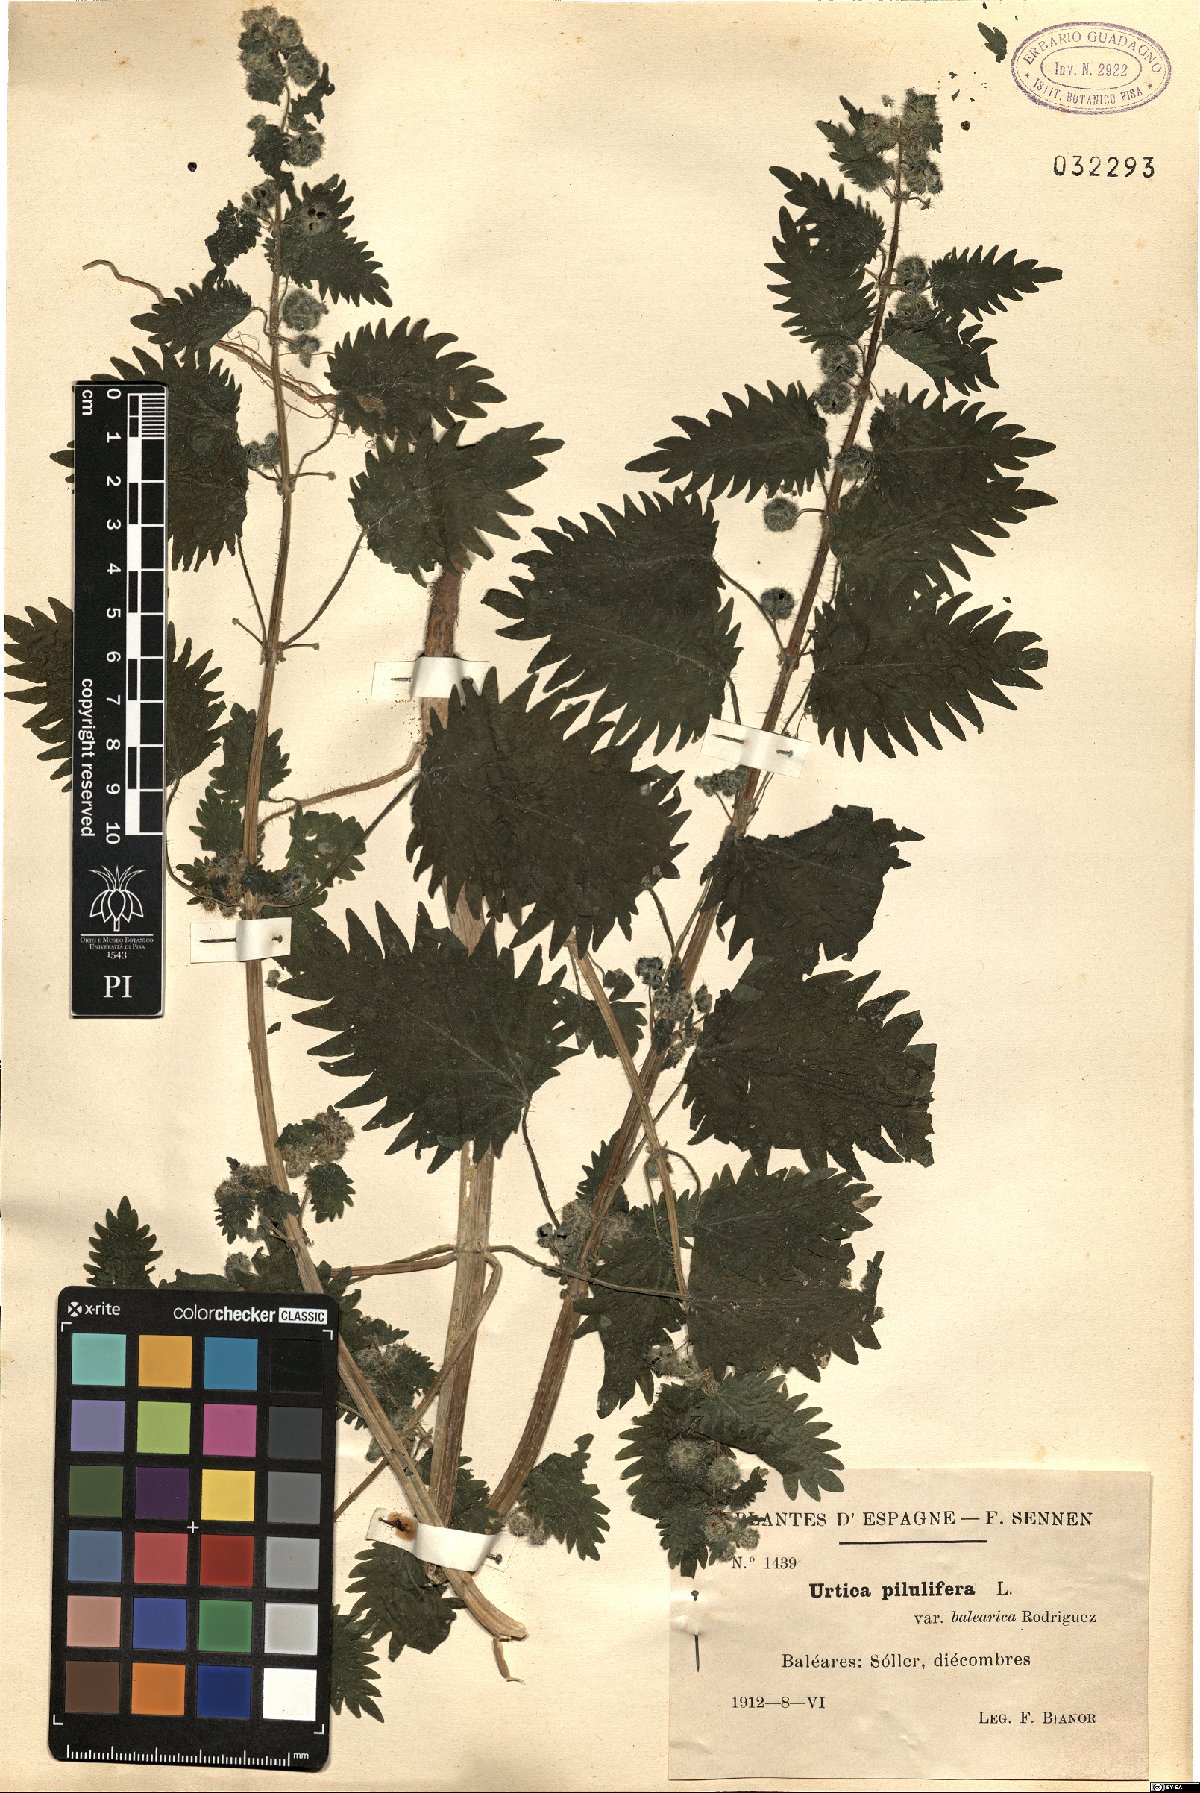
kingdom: Plantae
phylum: Tracheophyta
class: Magnoliopsida
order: Rosales
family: Urticaceae
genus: Urtica
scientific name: Urtica pilulifera
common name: Roman nettle
